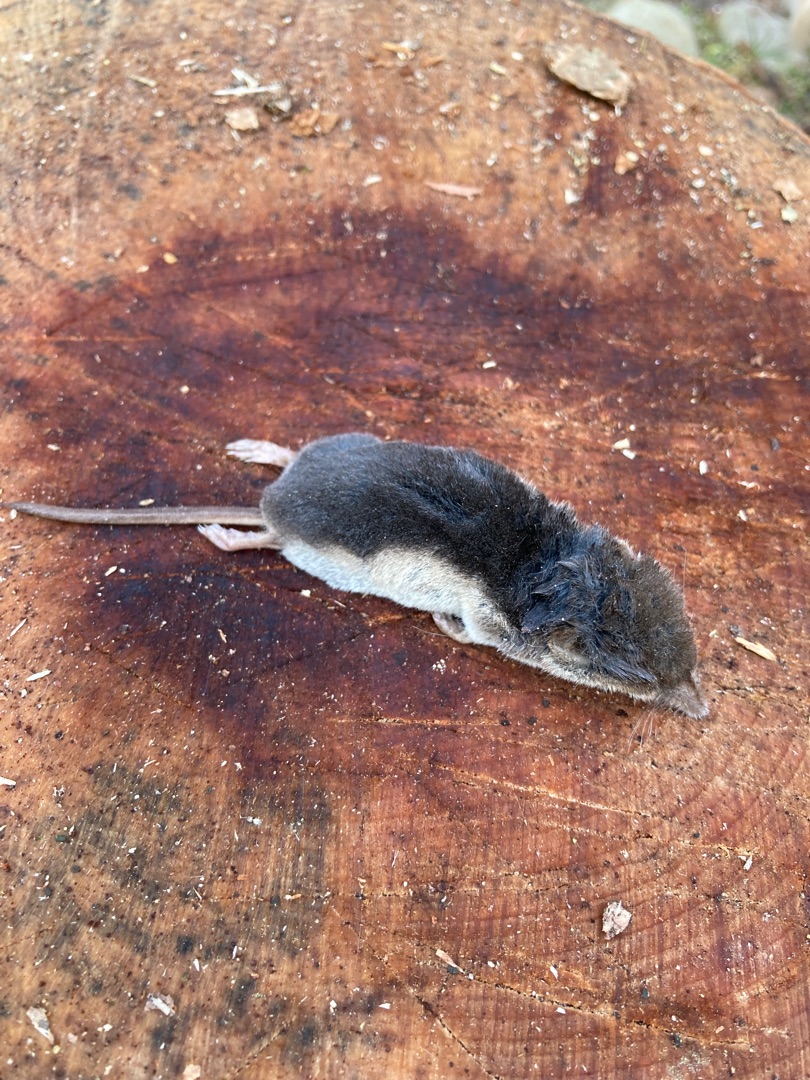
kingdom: Animalia
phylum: Chordata
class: Mammalia
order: Soricomorpha
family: Soricidae
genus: Sorex
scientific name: Sorex araneus
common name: Almindelig spidsmus
